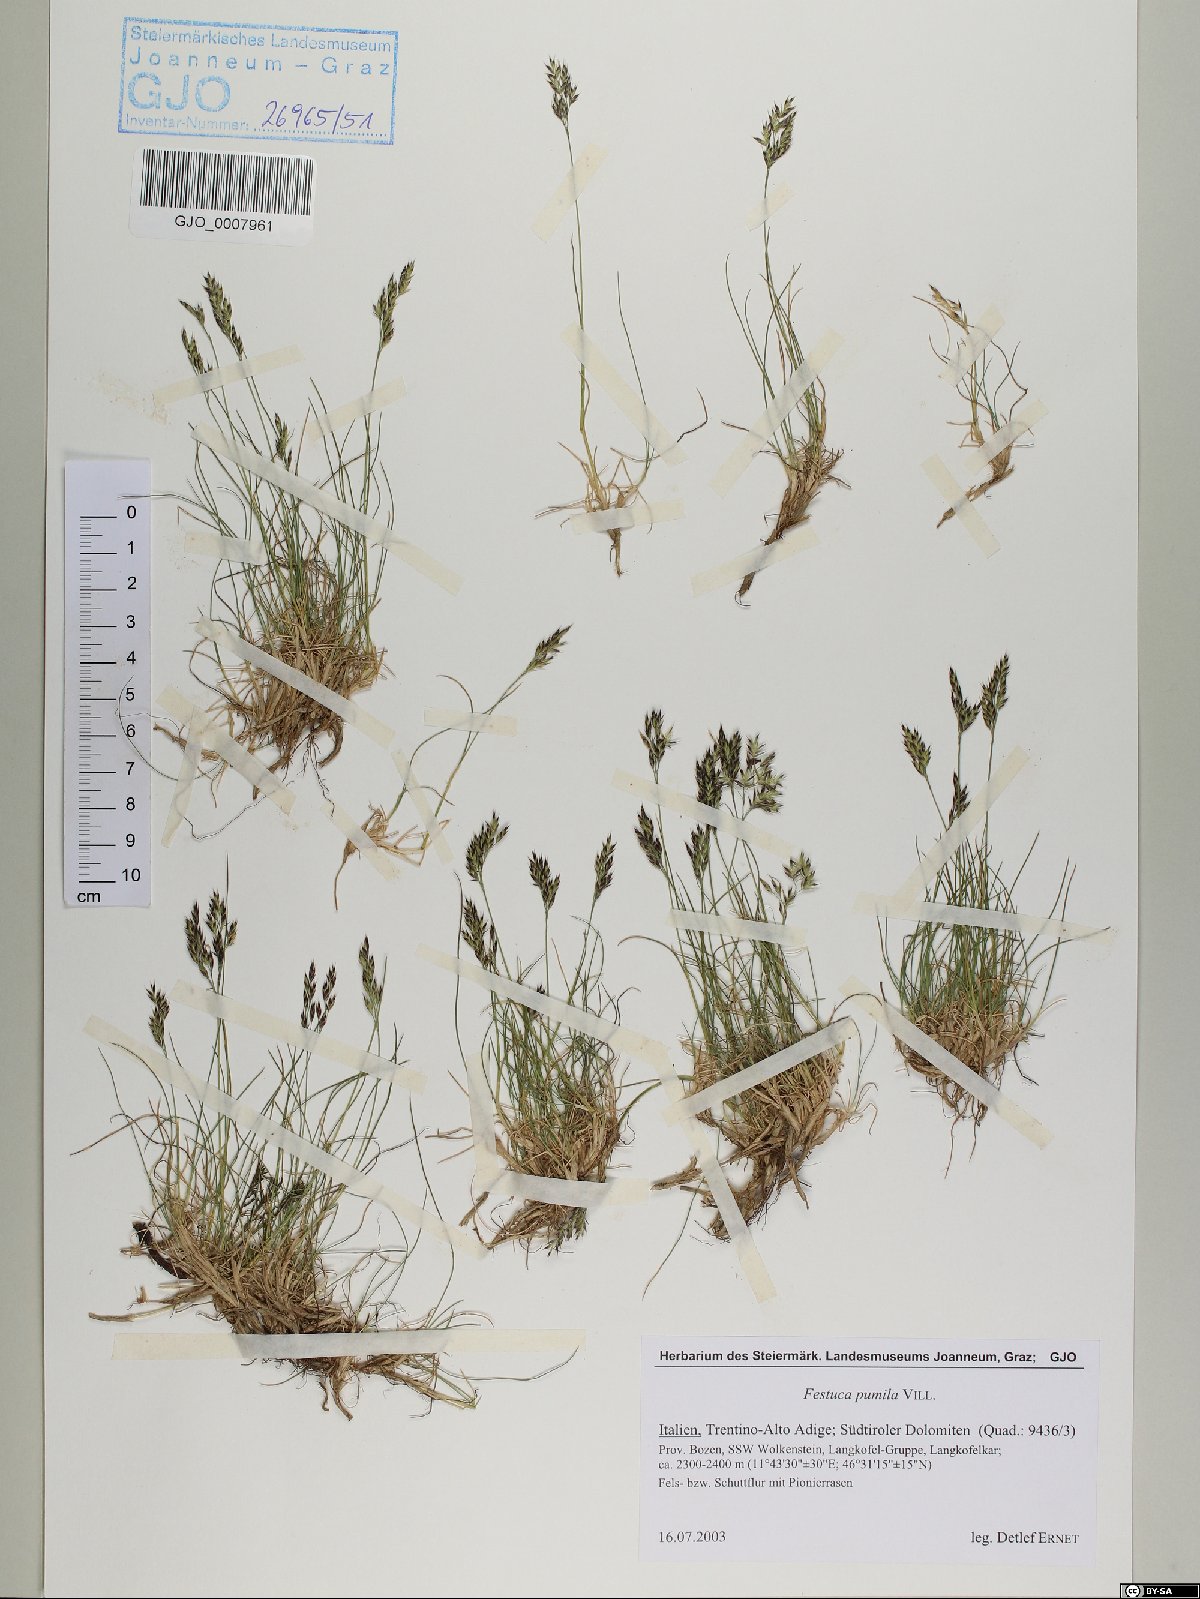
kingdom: Plantae
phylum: Tracheophyta
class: Liliopsida
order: Poales
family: Poaceae
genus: Festuca
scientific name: Festuca quadriflora
